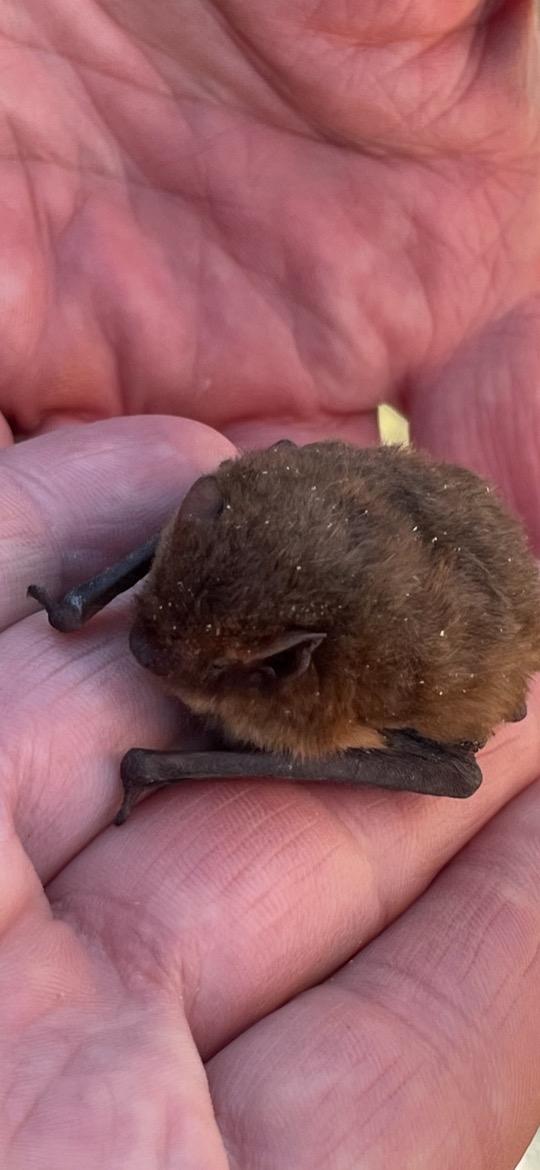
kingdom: Animalia
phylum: Chordata
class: Mammalia
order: Chiroptera
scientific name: Chiroptera
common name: Flagermus
